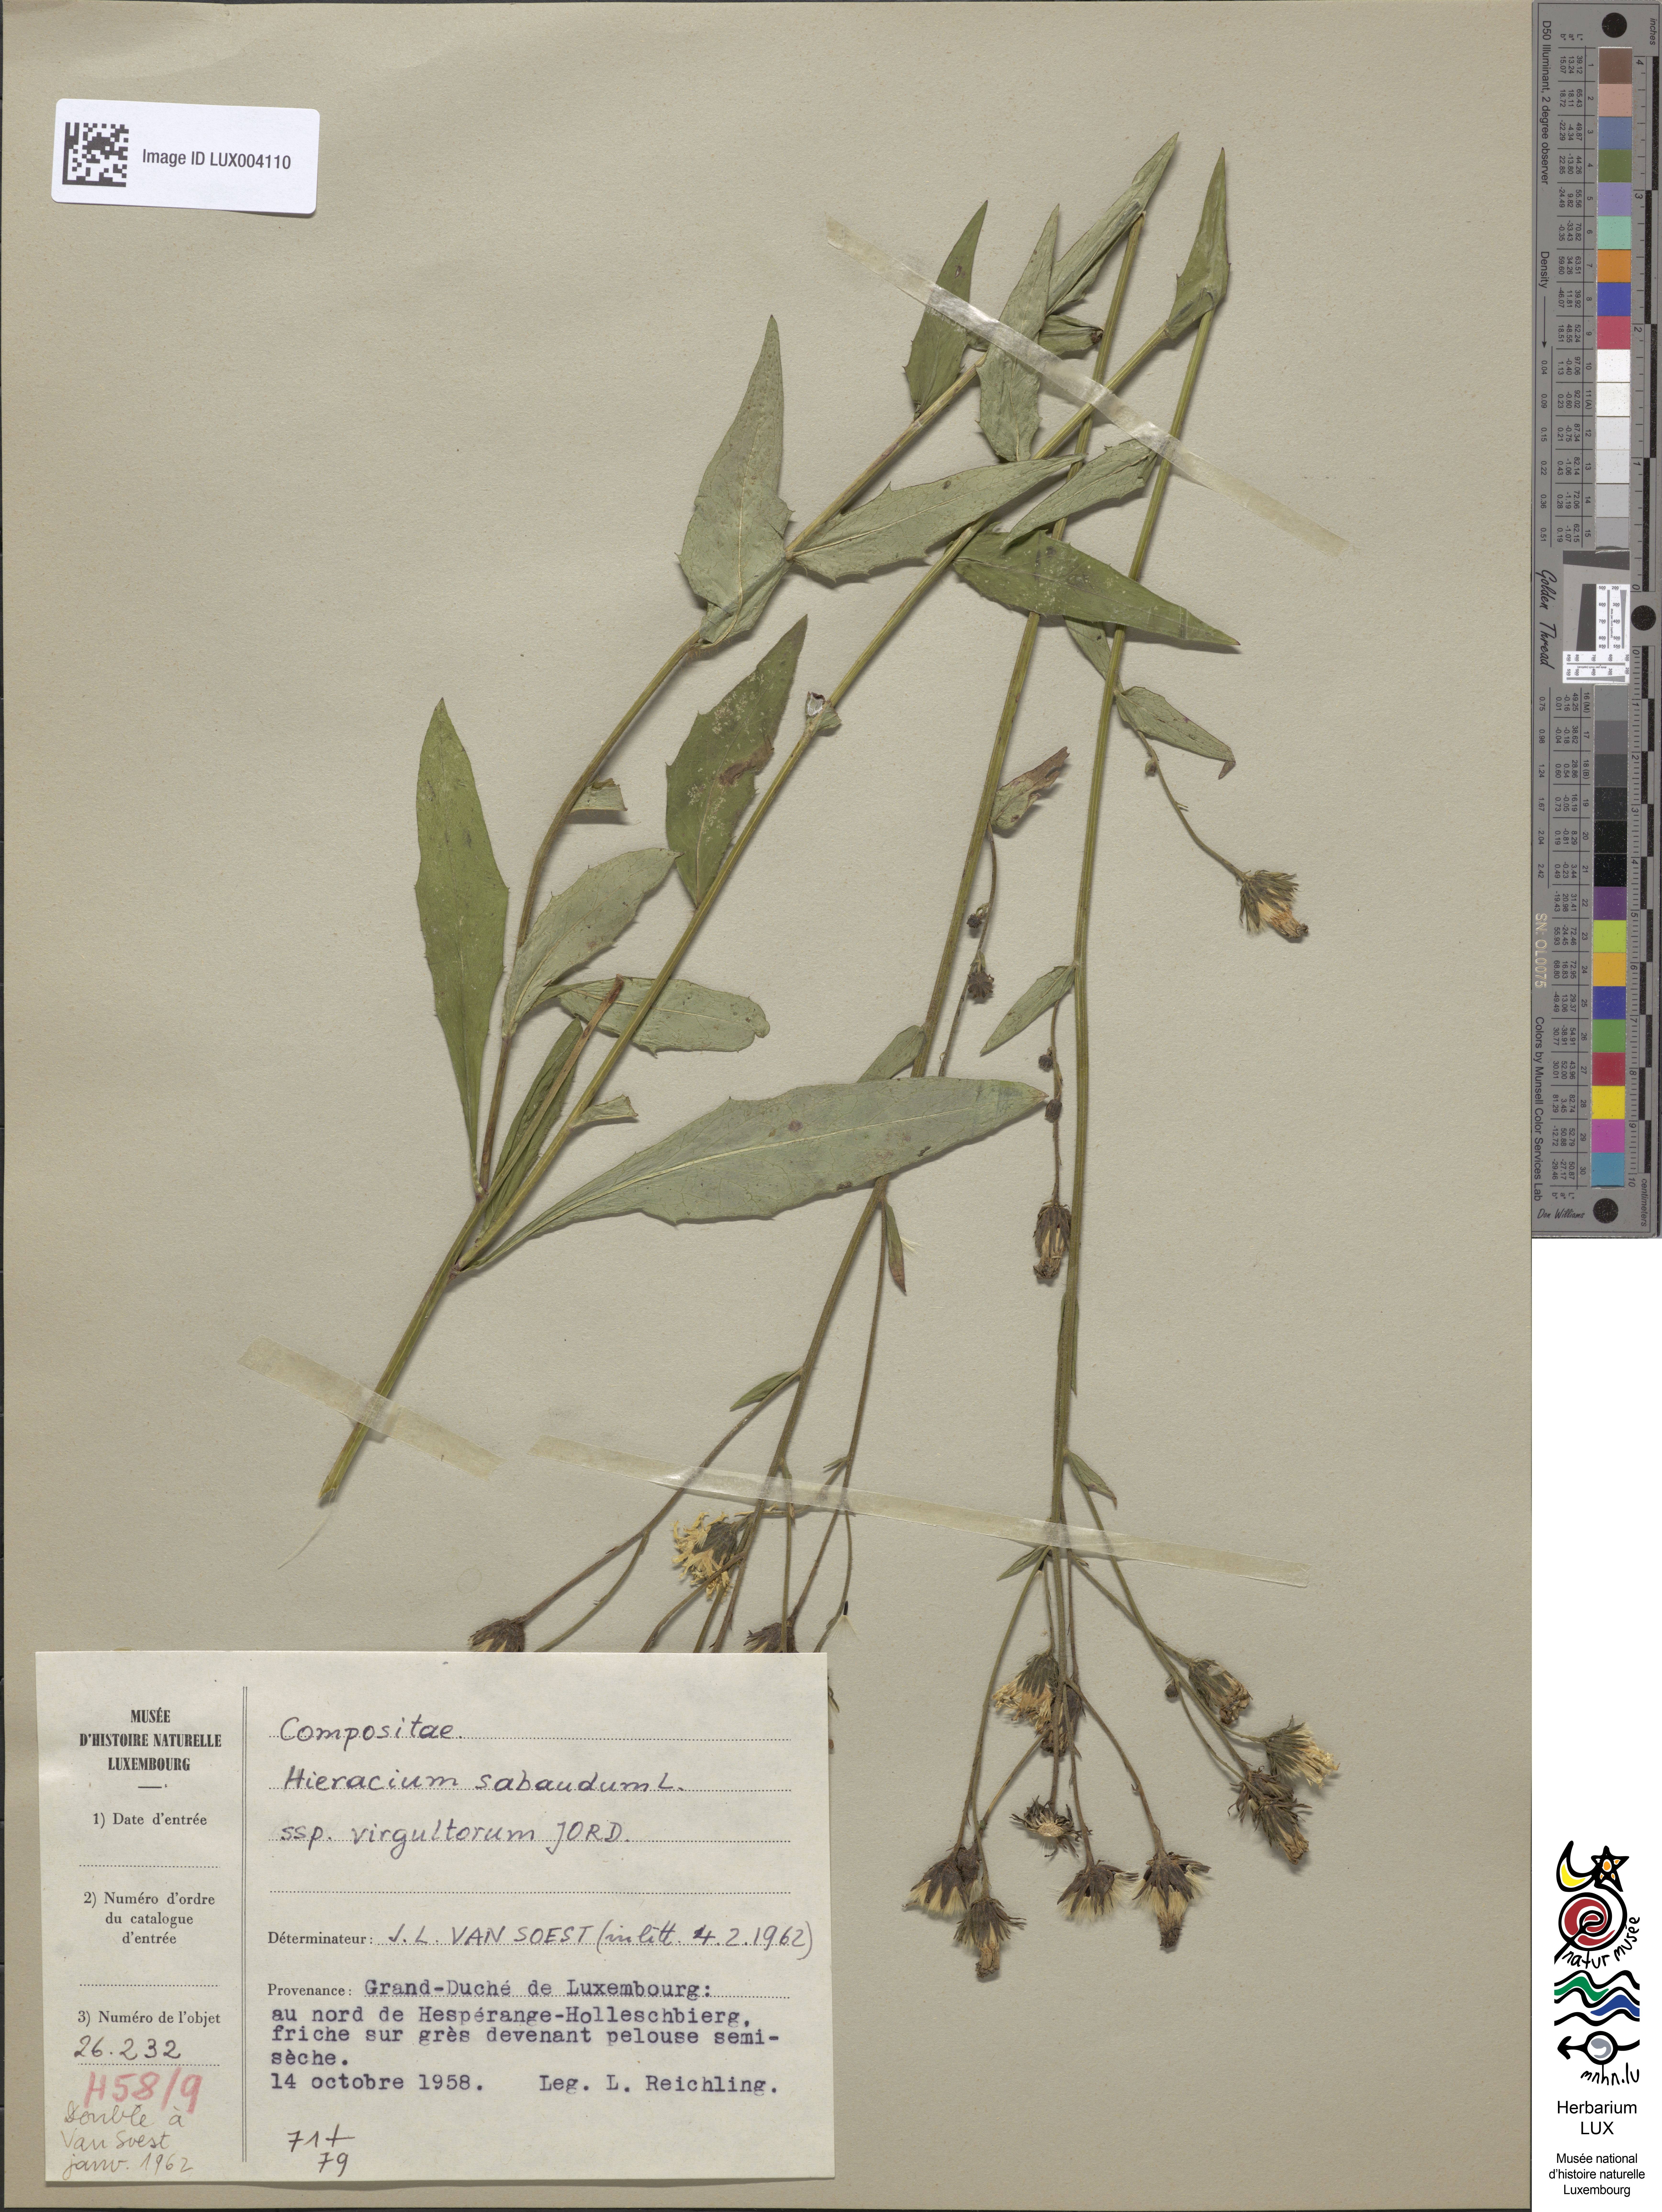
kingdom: Plantae
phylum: Tracheophyta
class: Magnoliopsida
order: Asterales
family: Asteraceae
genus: Hieracium
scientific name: Hieracium sabaudum
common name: New england hawkweed
